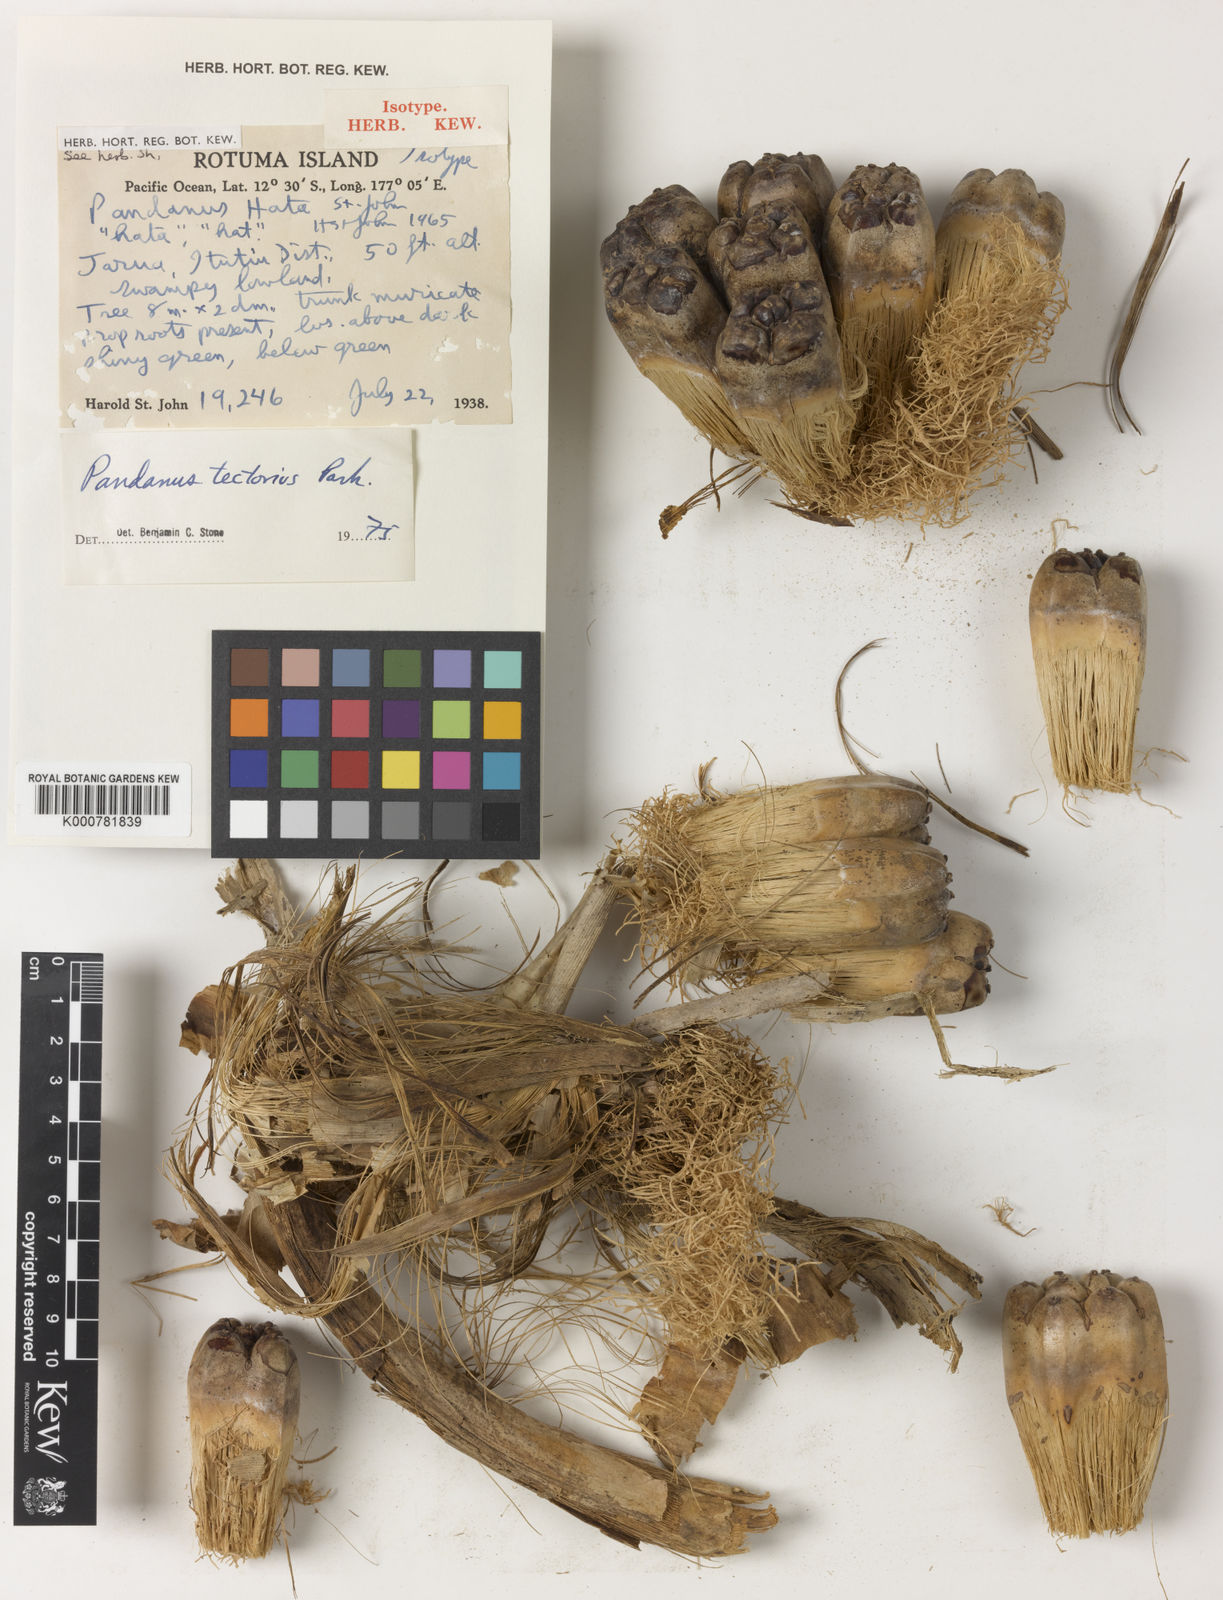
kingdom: Plantae
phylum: Tracheophyta
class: Liliopsida
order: Pandanales
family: Pandanaceae
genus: Pandanus
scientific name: Pandanus
